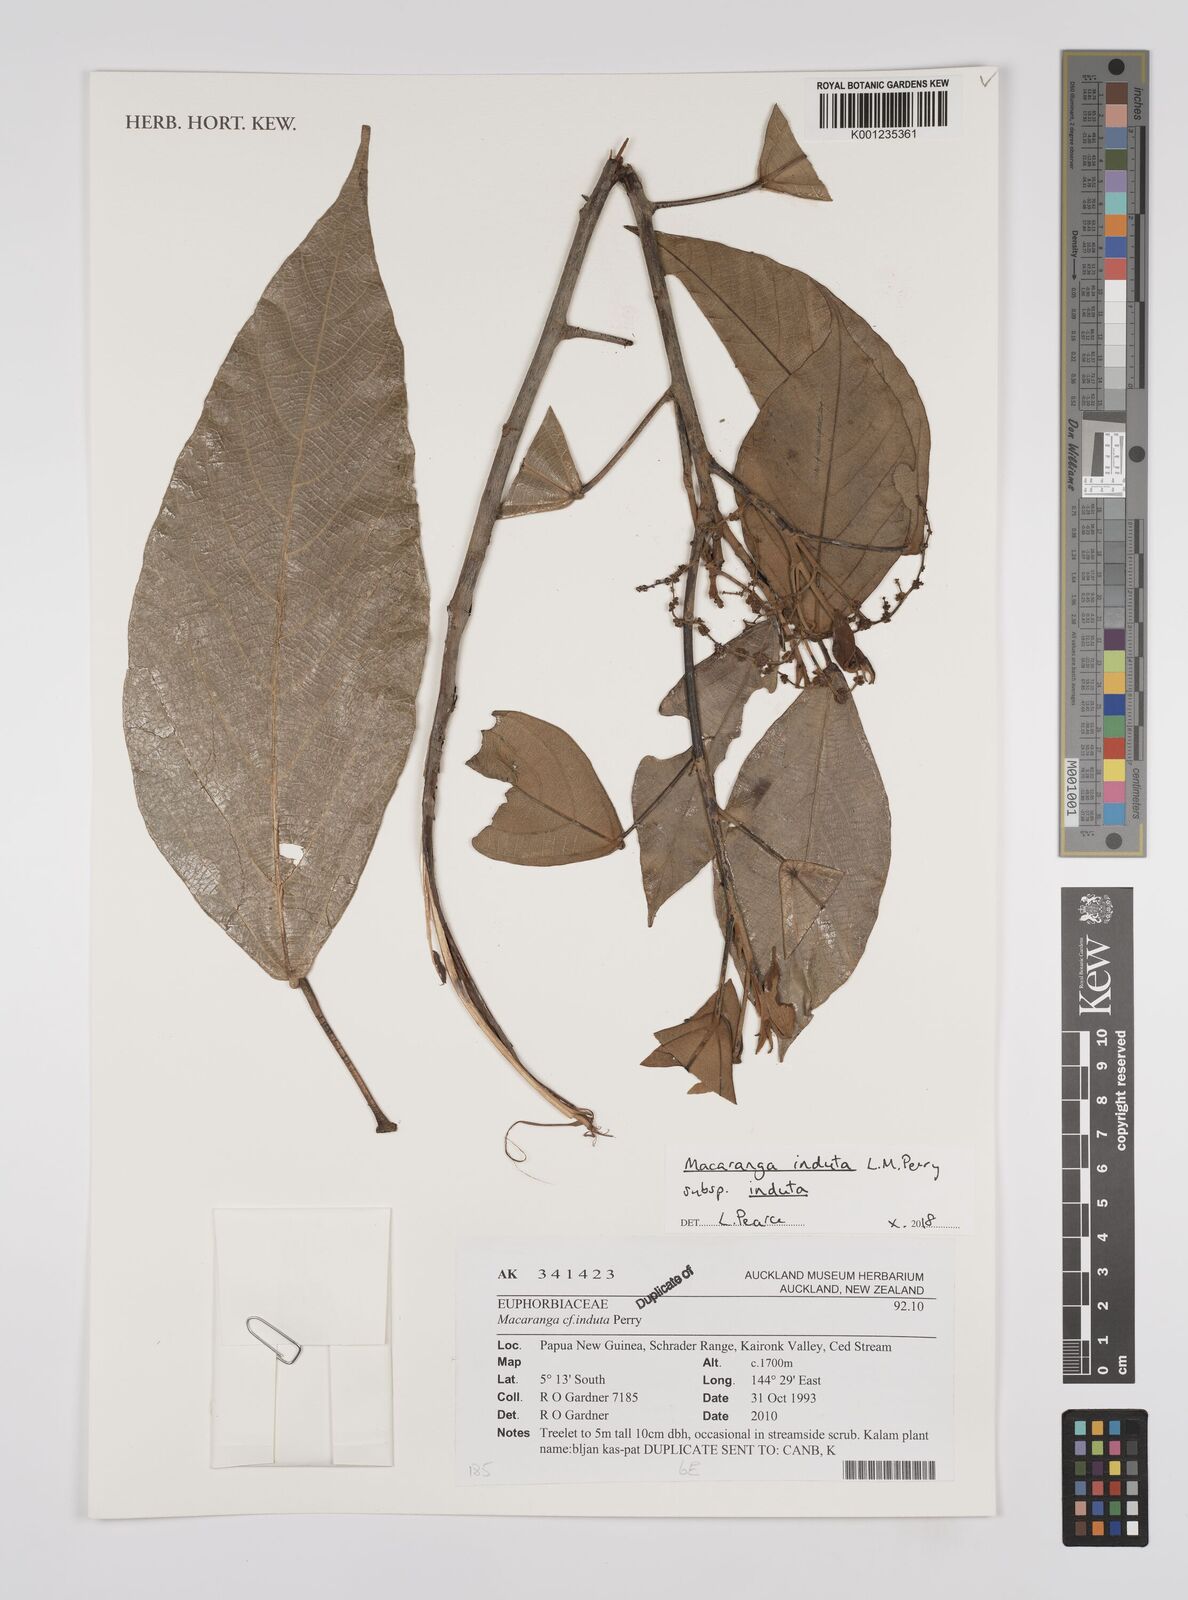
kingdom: Plantae
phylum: Tracheophyta
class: Magnoliopsida
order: Malpighiales
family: Euphorbiaceae
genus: Macaranga
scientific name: Macaranga induta
